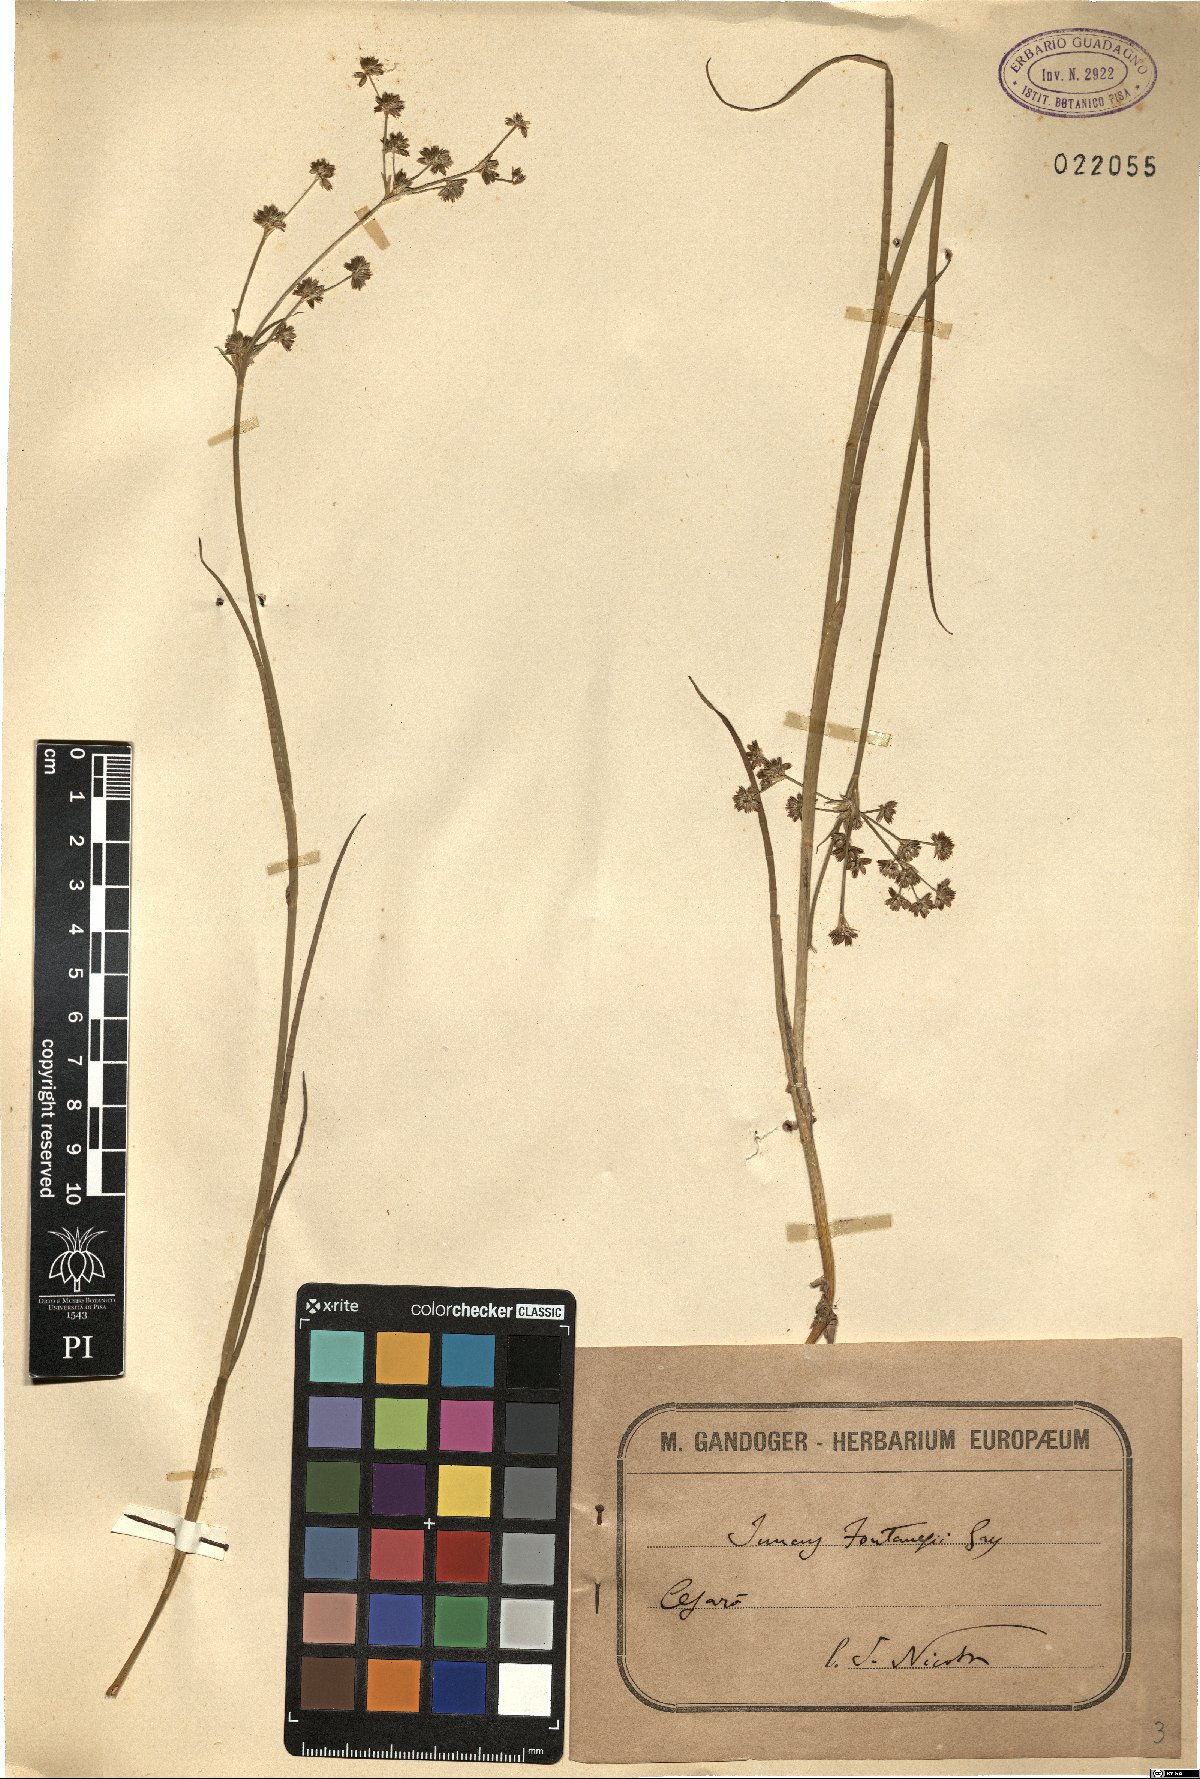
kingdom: Plantae
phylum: Tracheophyta
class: Liliopsida
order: Poales
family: Juncaceae
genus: Juncus
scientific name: Juncus fontanesii
